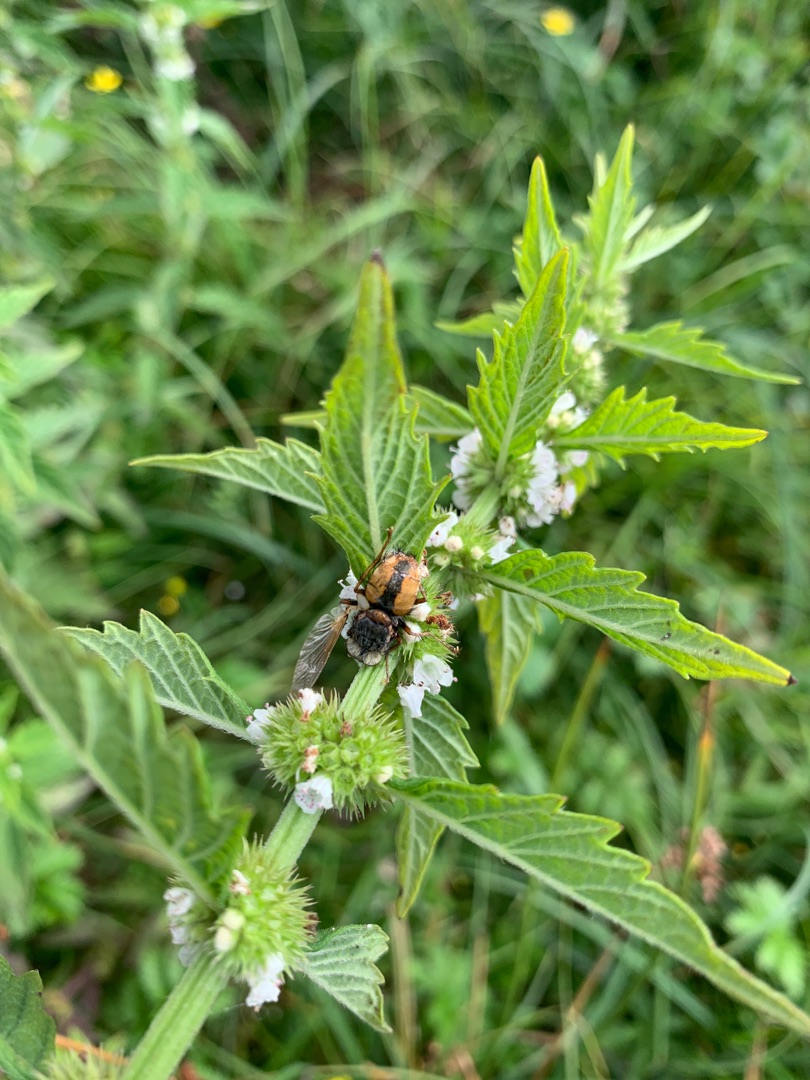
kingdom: Animalia
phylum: Arthropoda
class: Insecta
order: Diptera
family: Tachinidae
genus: Tachina
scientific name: Tachina fera
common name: Mellemfluen oskar
